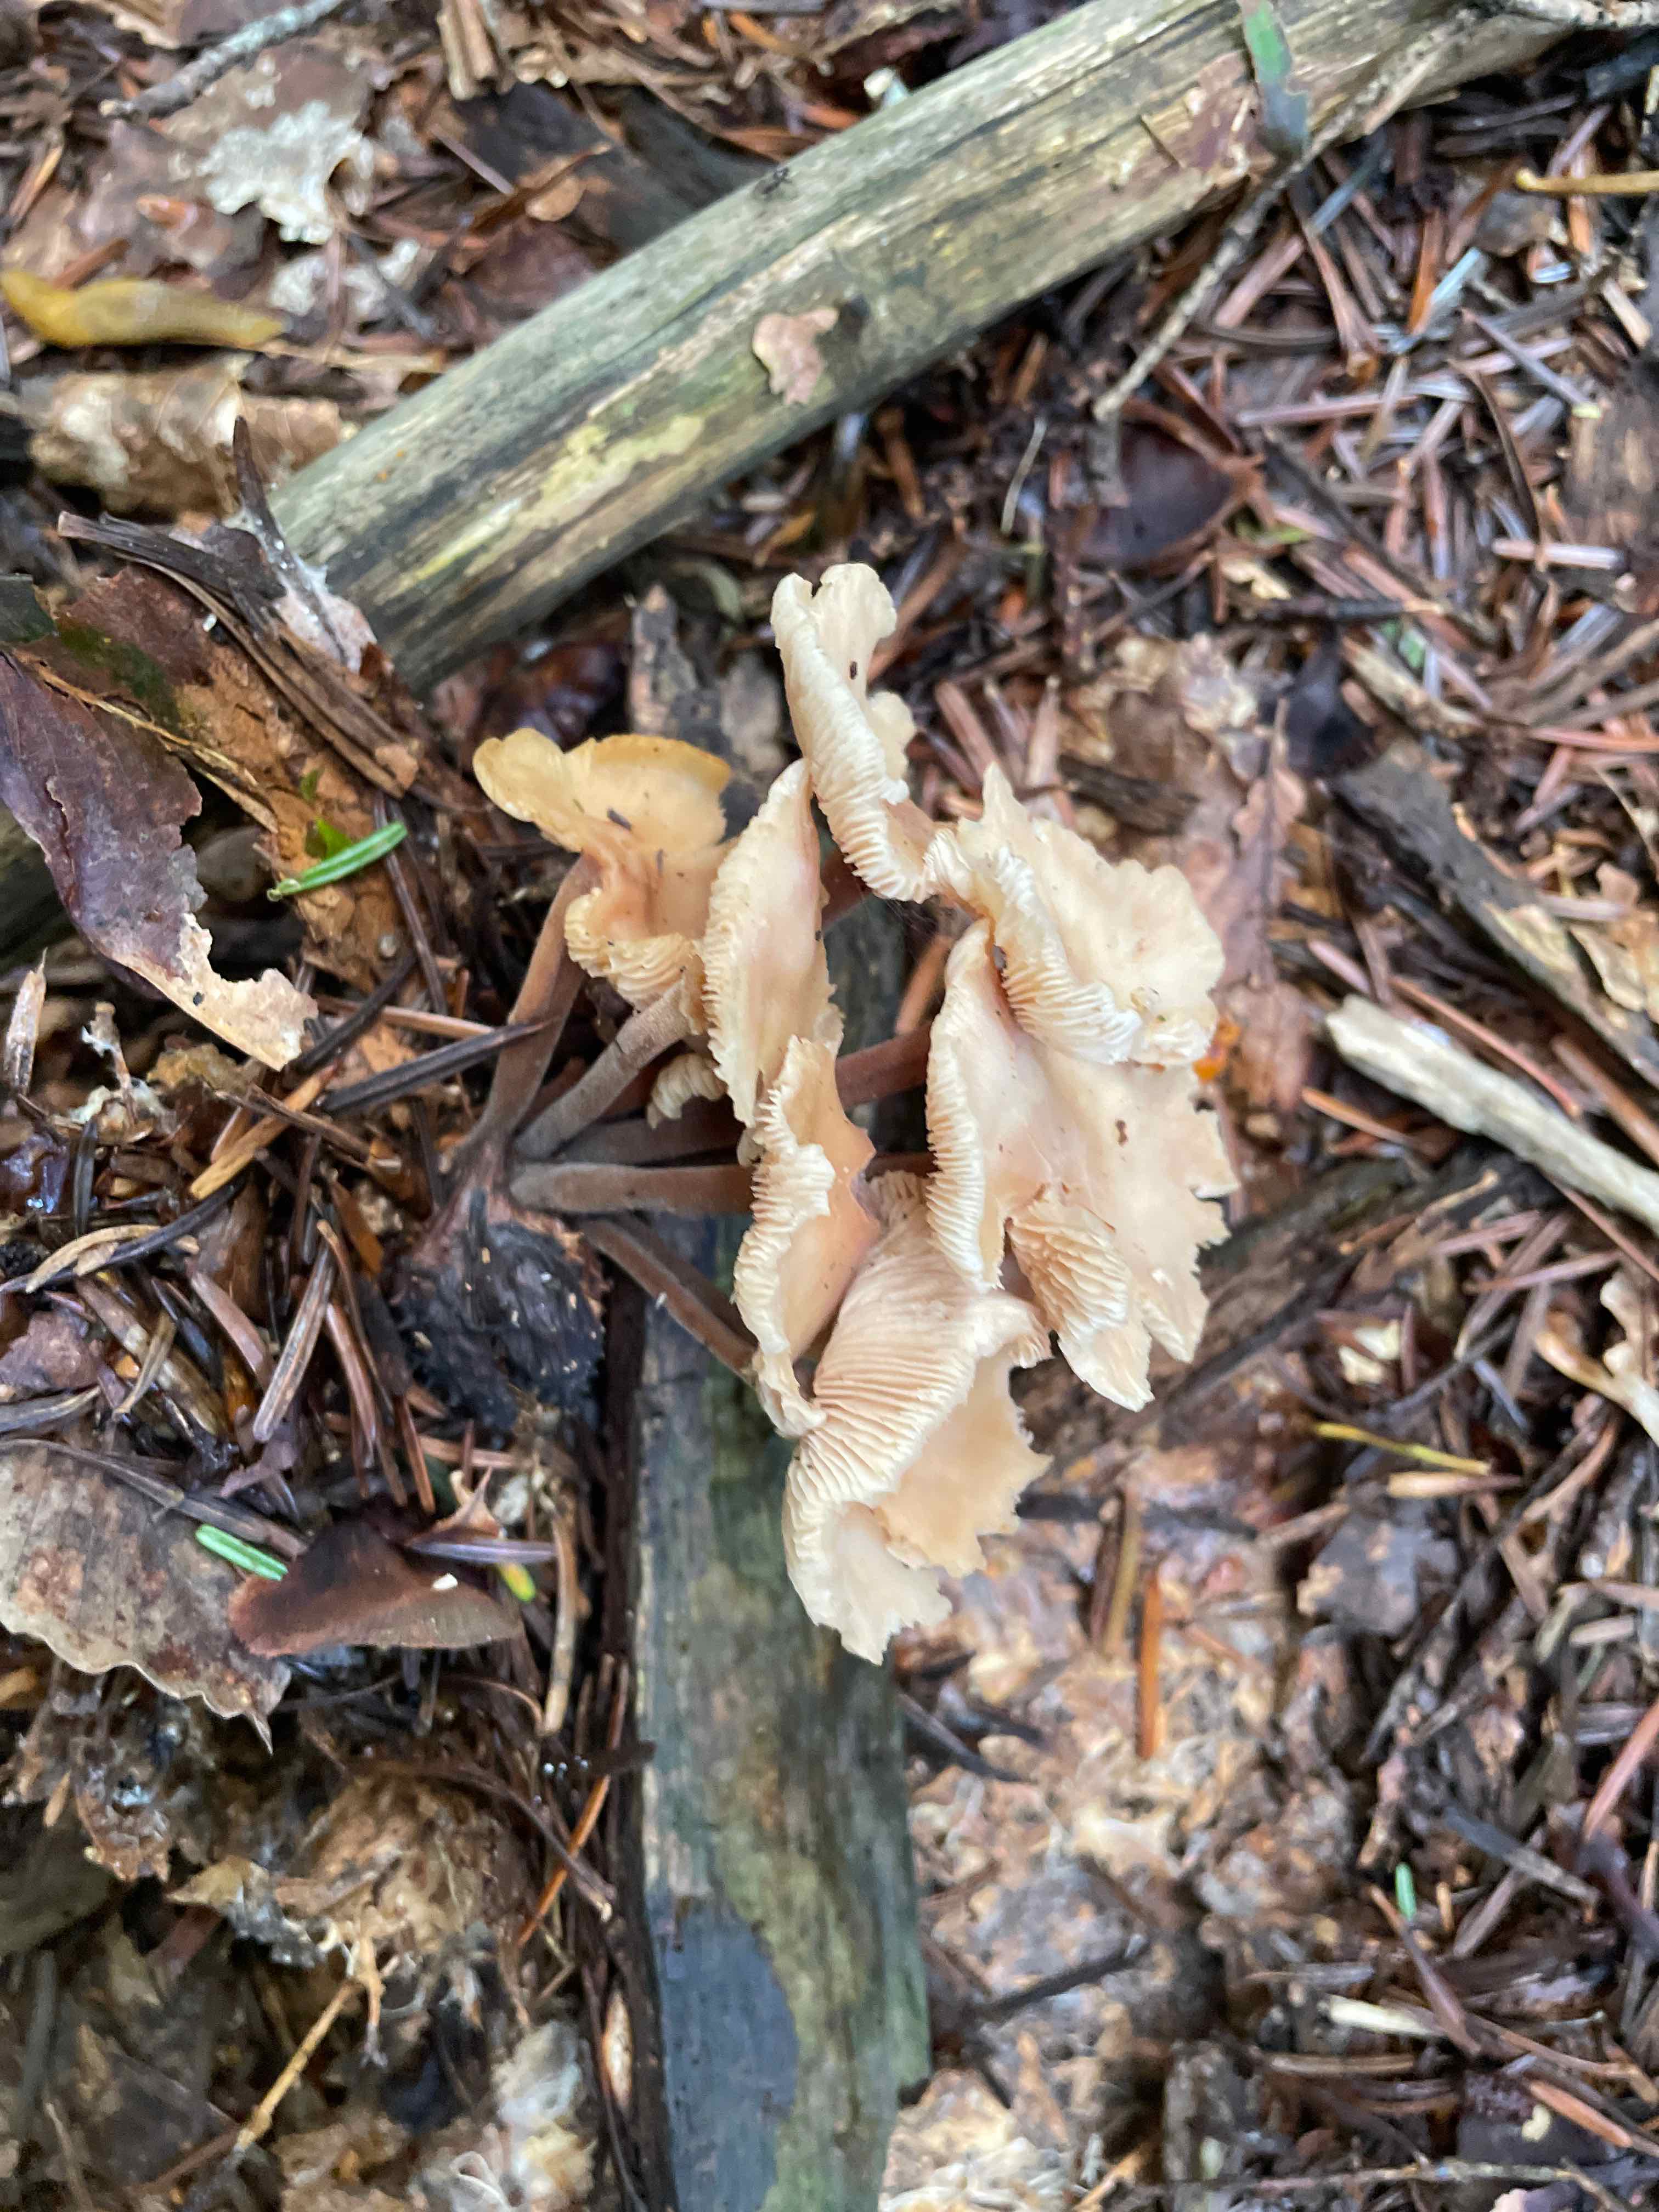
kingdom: Fungi
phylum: Basidiomycota
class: Agaricomycetes
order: Agaricales
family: Omphalotaceae
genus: Collybiopsis
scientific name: Collybiopsis confluens
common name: knippe-fladhat
